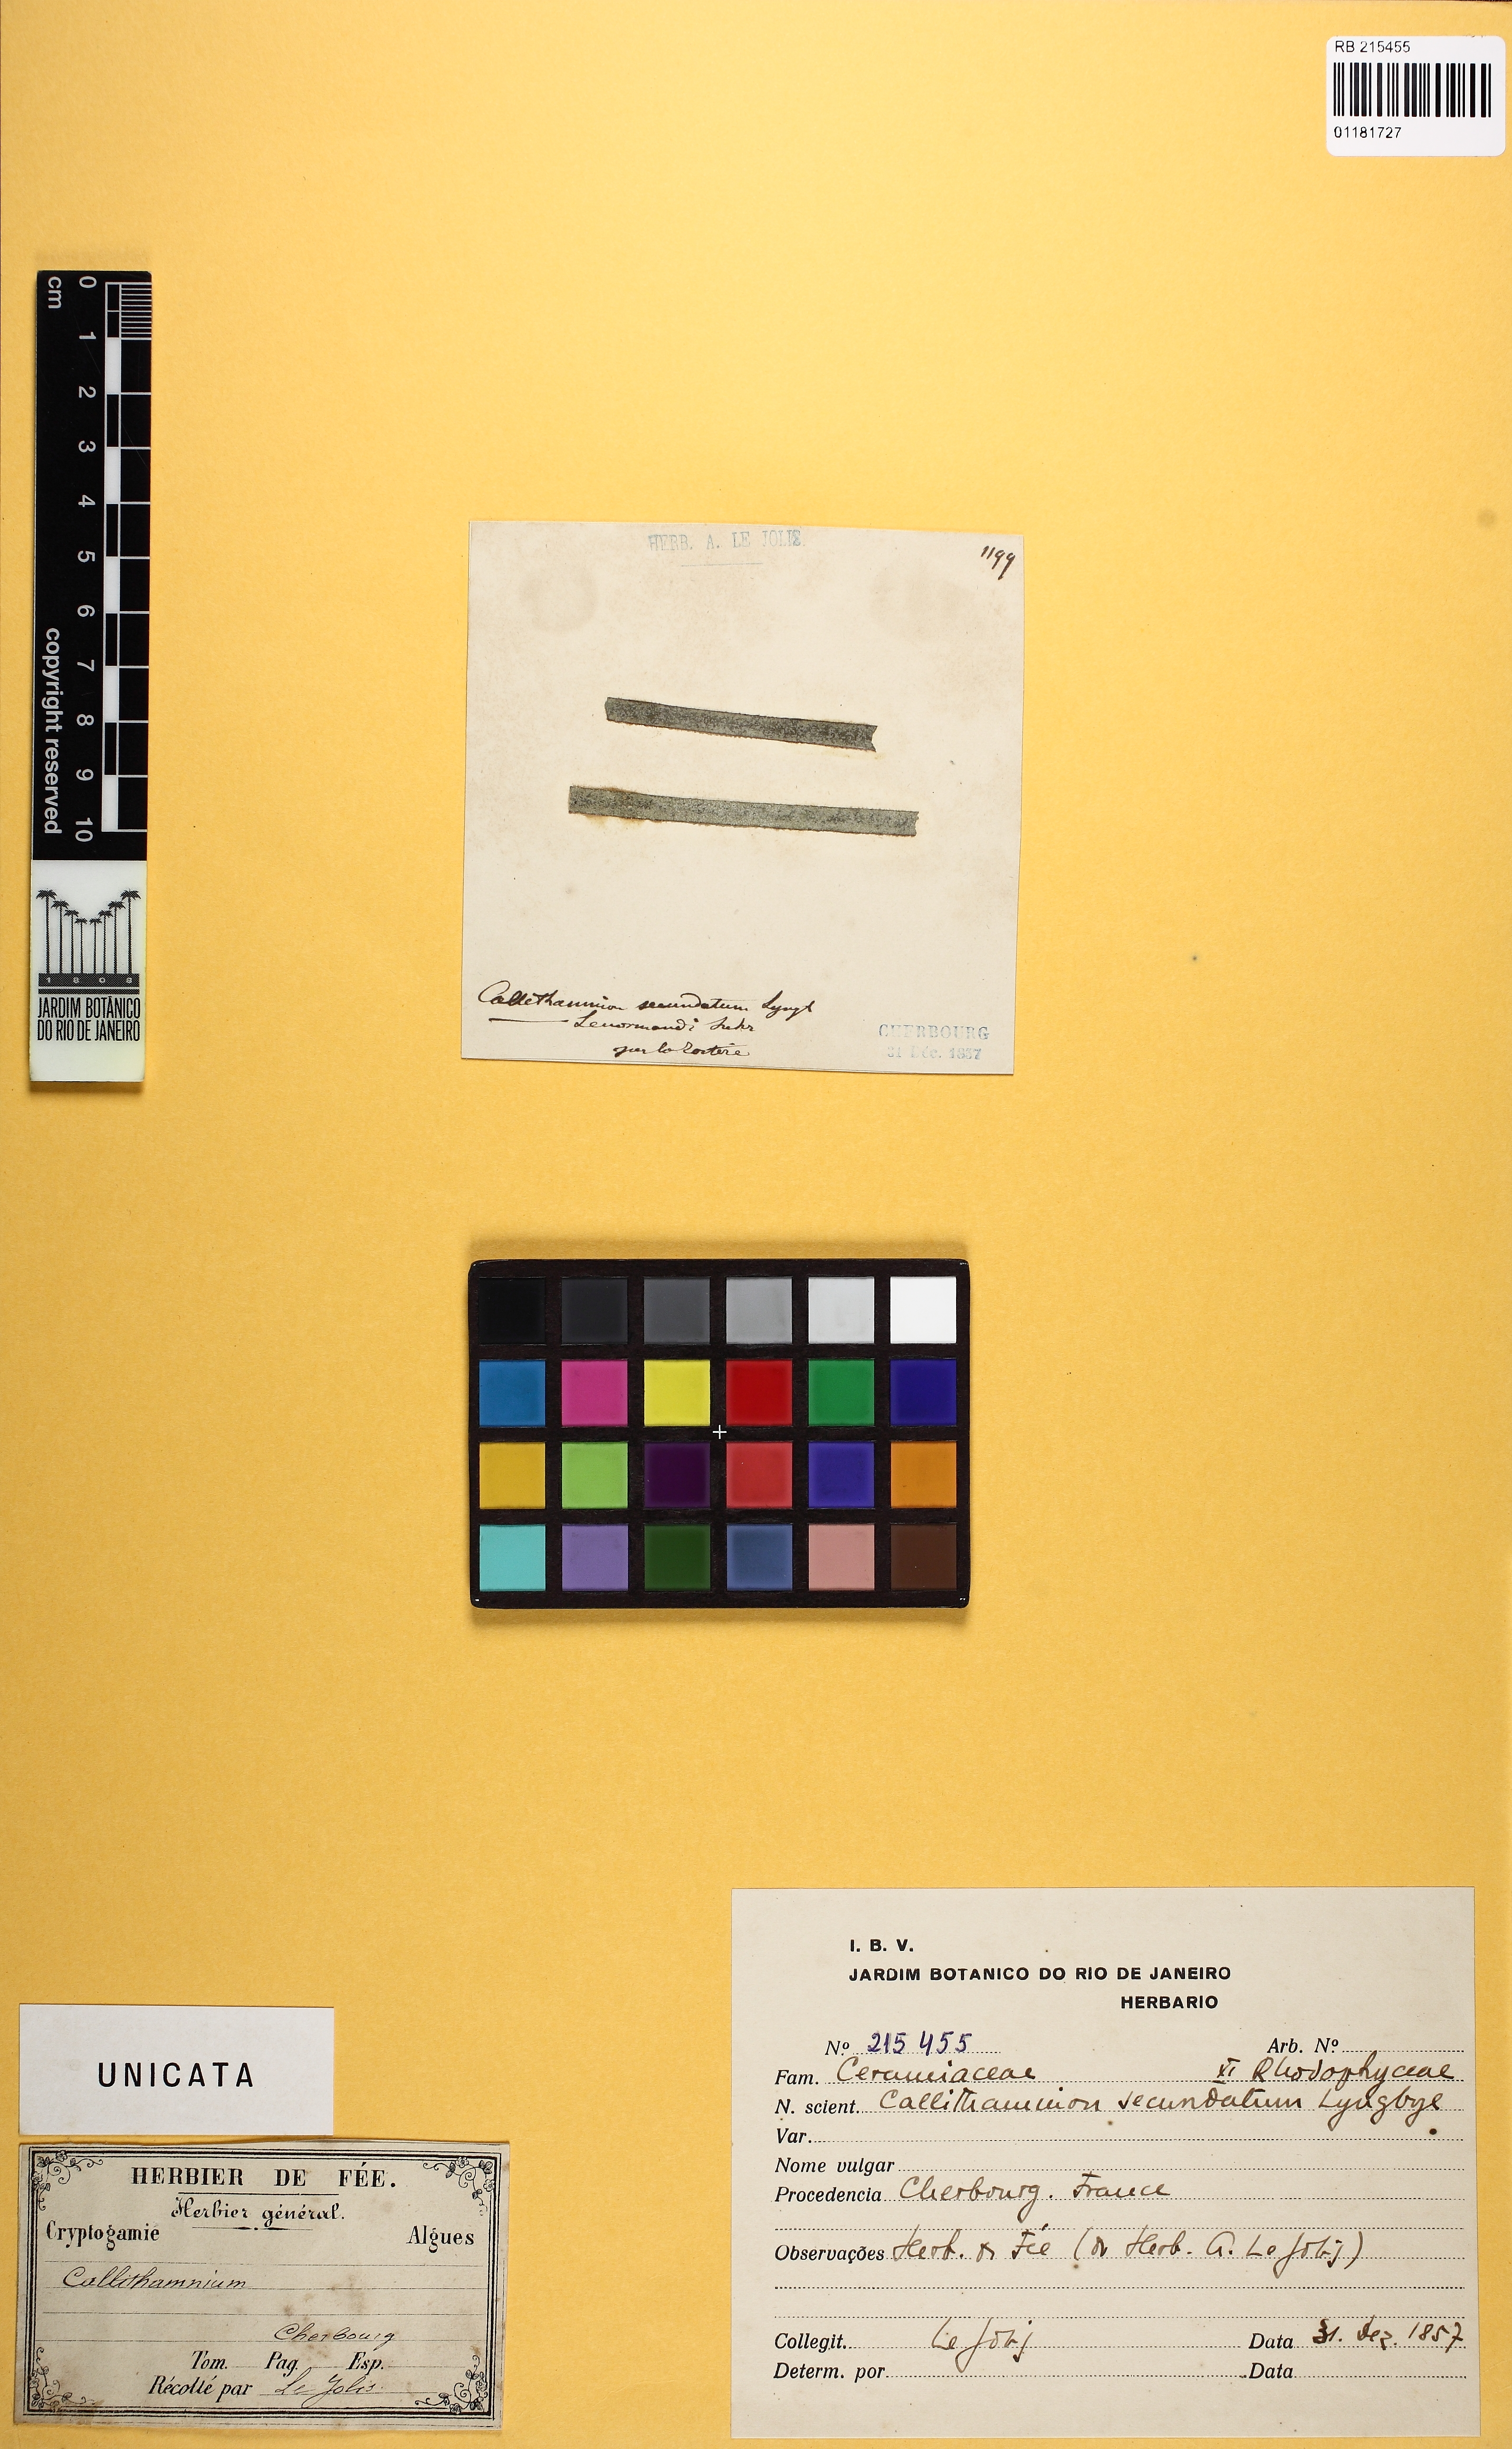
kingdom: Plantae
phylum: Rhodophyta
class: Florideophyceae
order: Acrochaetiales
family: Acrochaetiaceae
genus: Acrochaetium
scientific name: Acrochaetium secundatum
